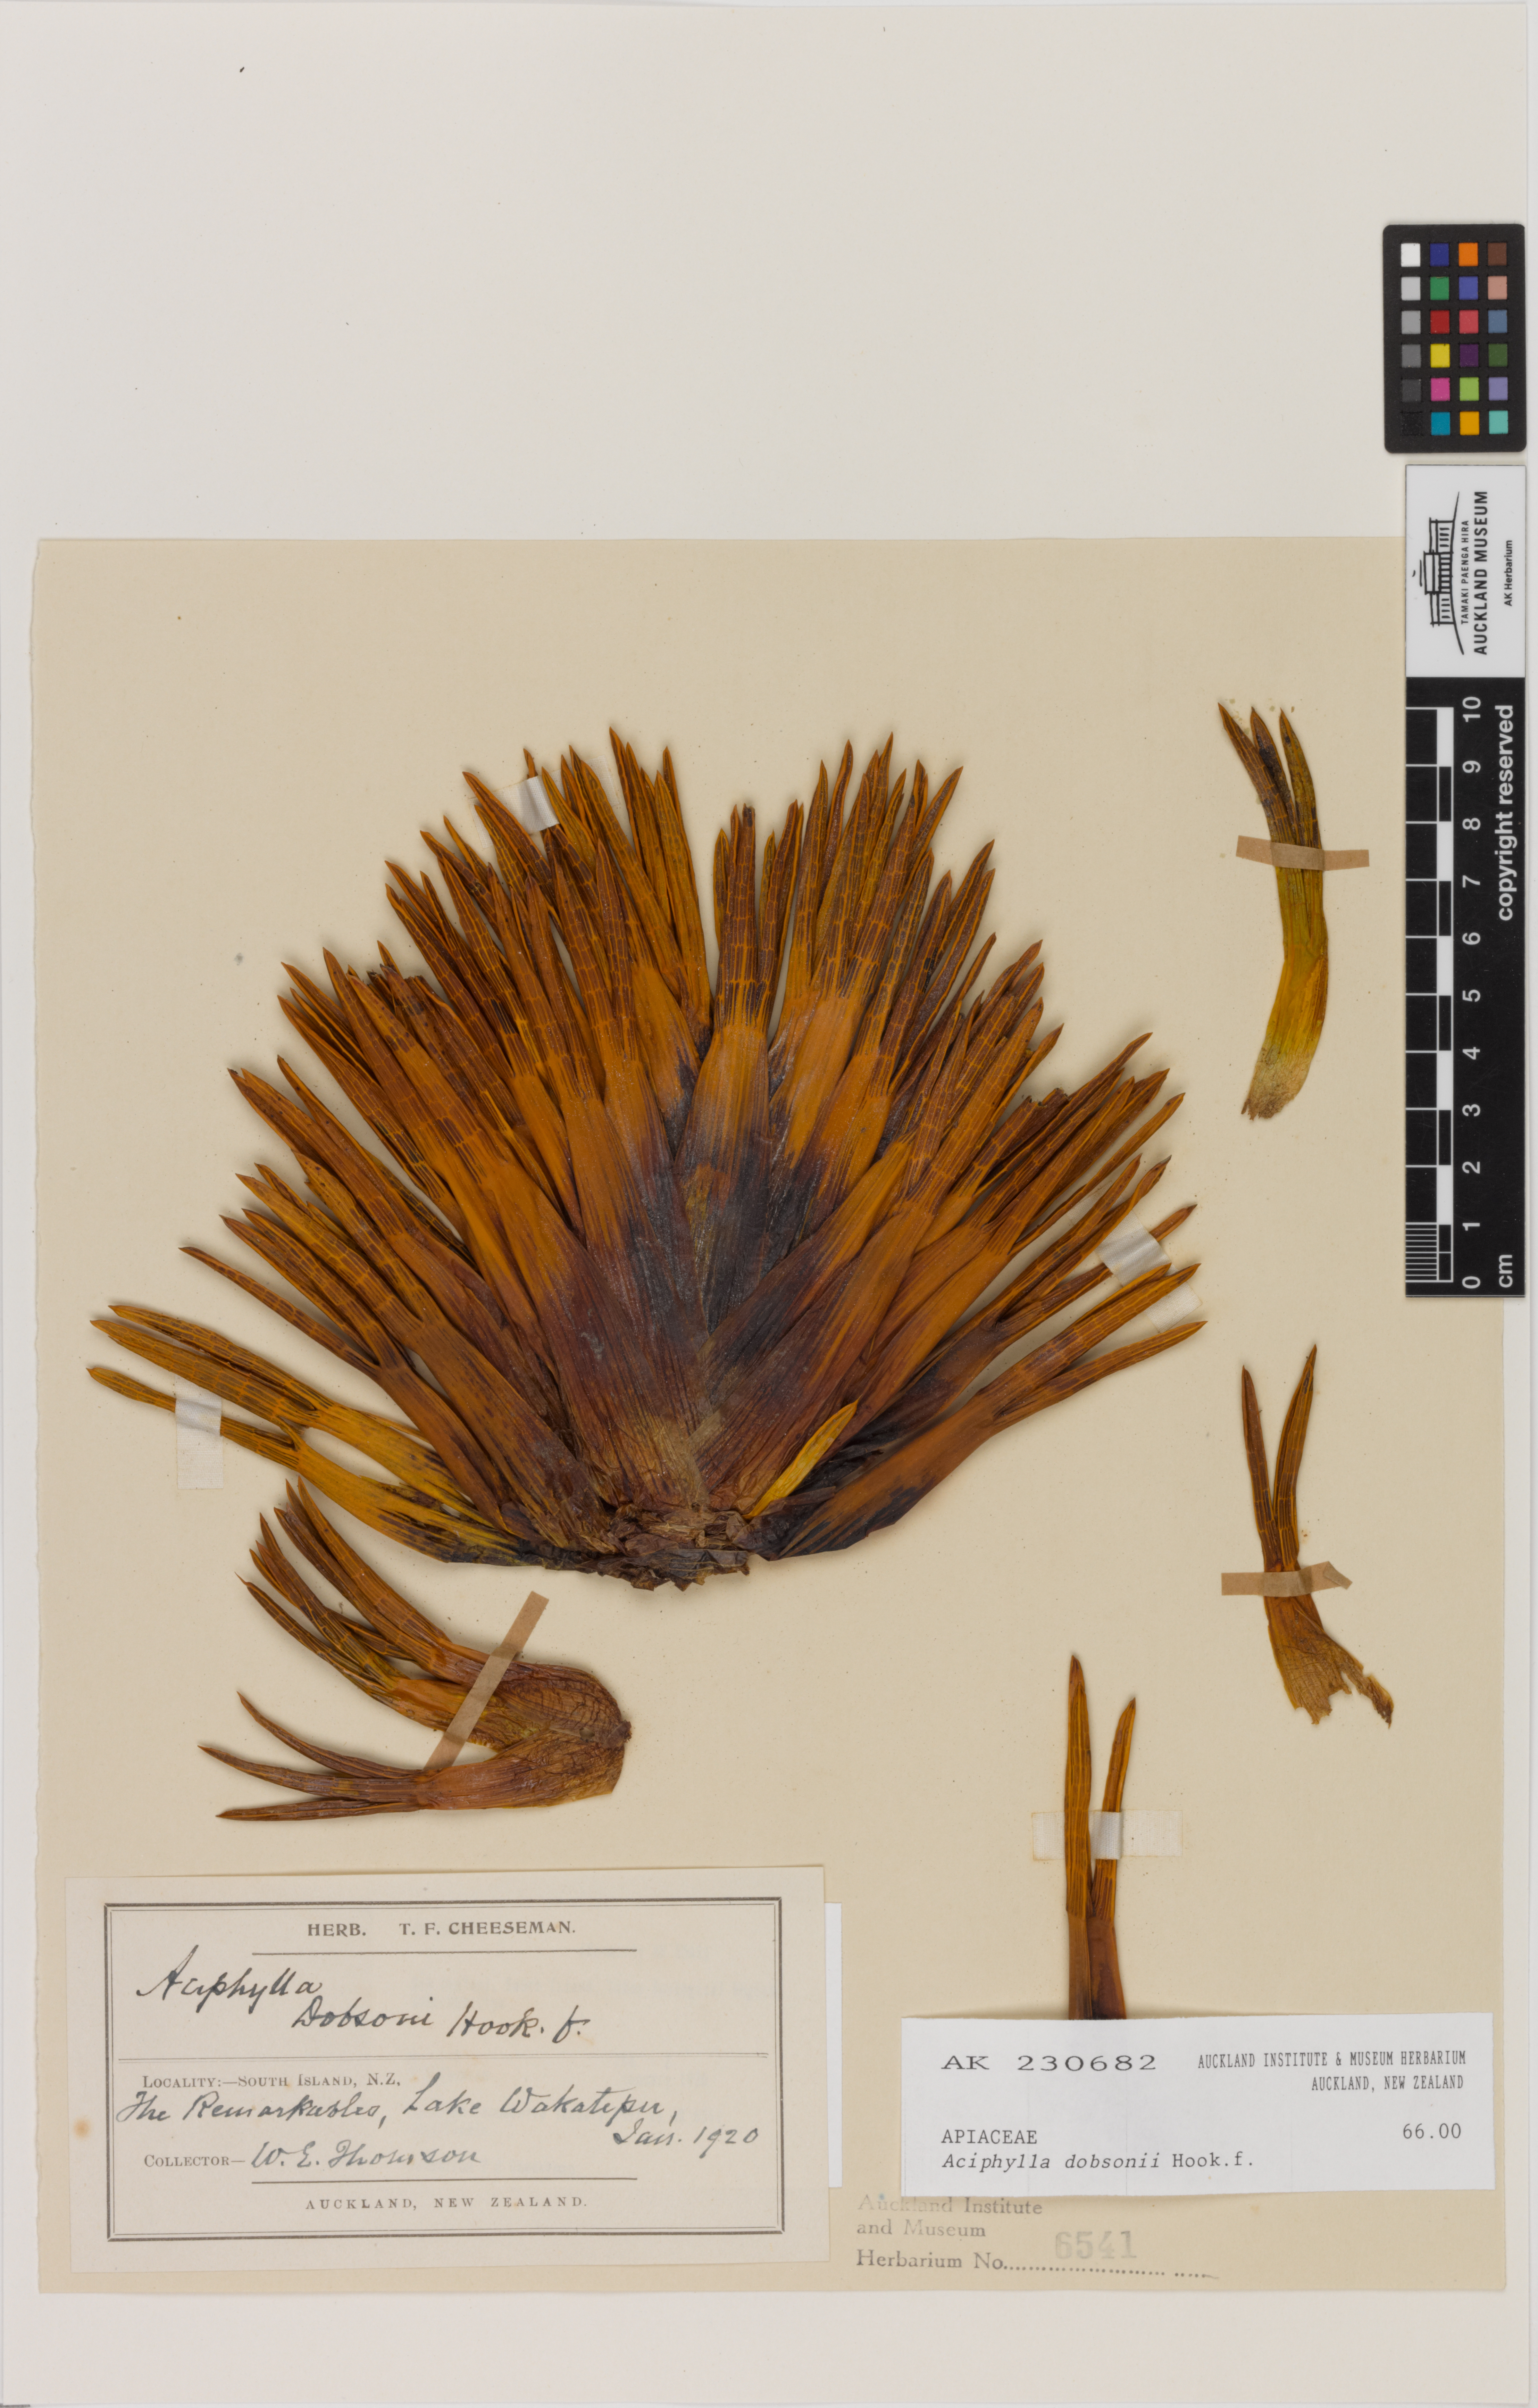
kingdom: Plantae
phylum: Tracheophyta
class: Magnoliopsida
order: Apiales
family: Apiaceae
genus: Aciphylla
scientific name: Aciphylla dobsonii
